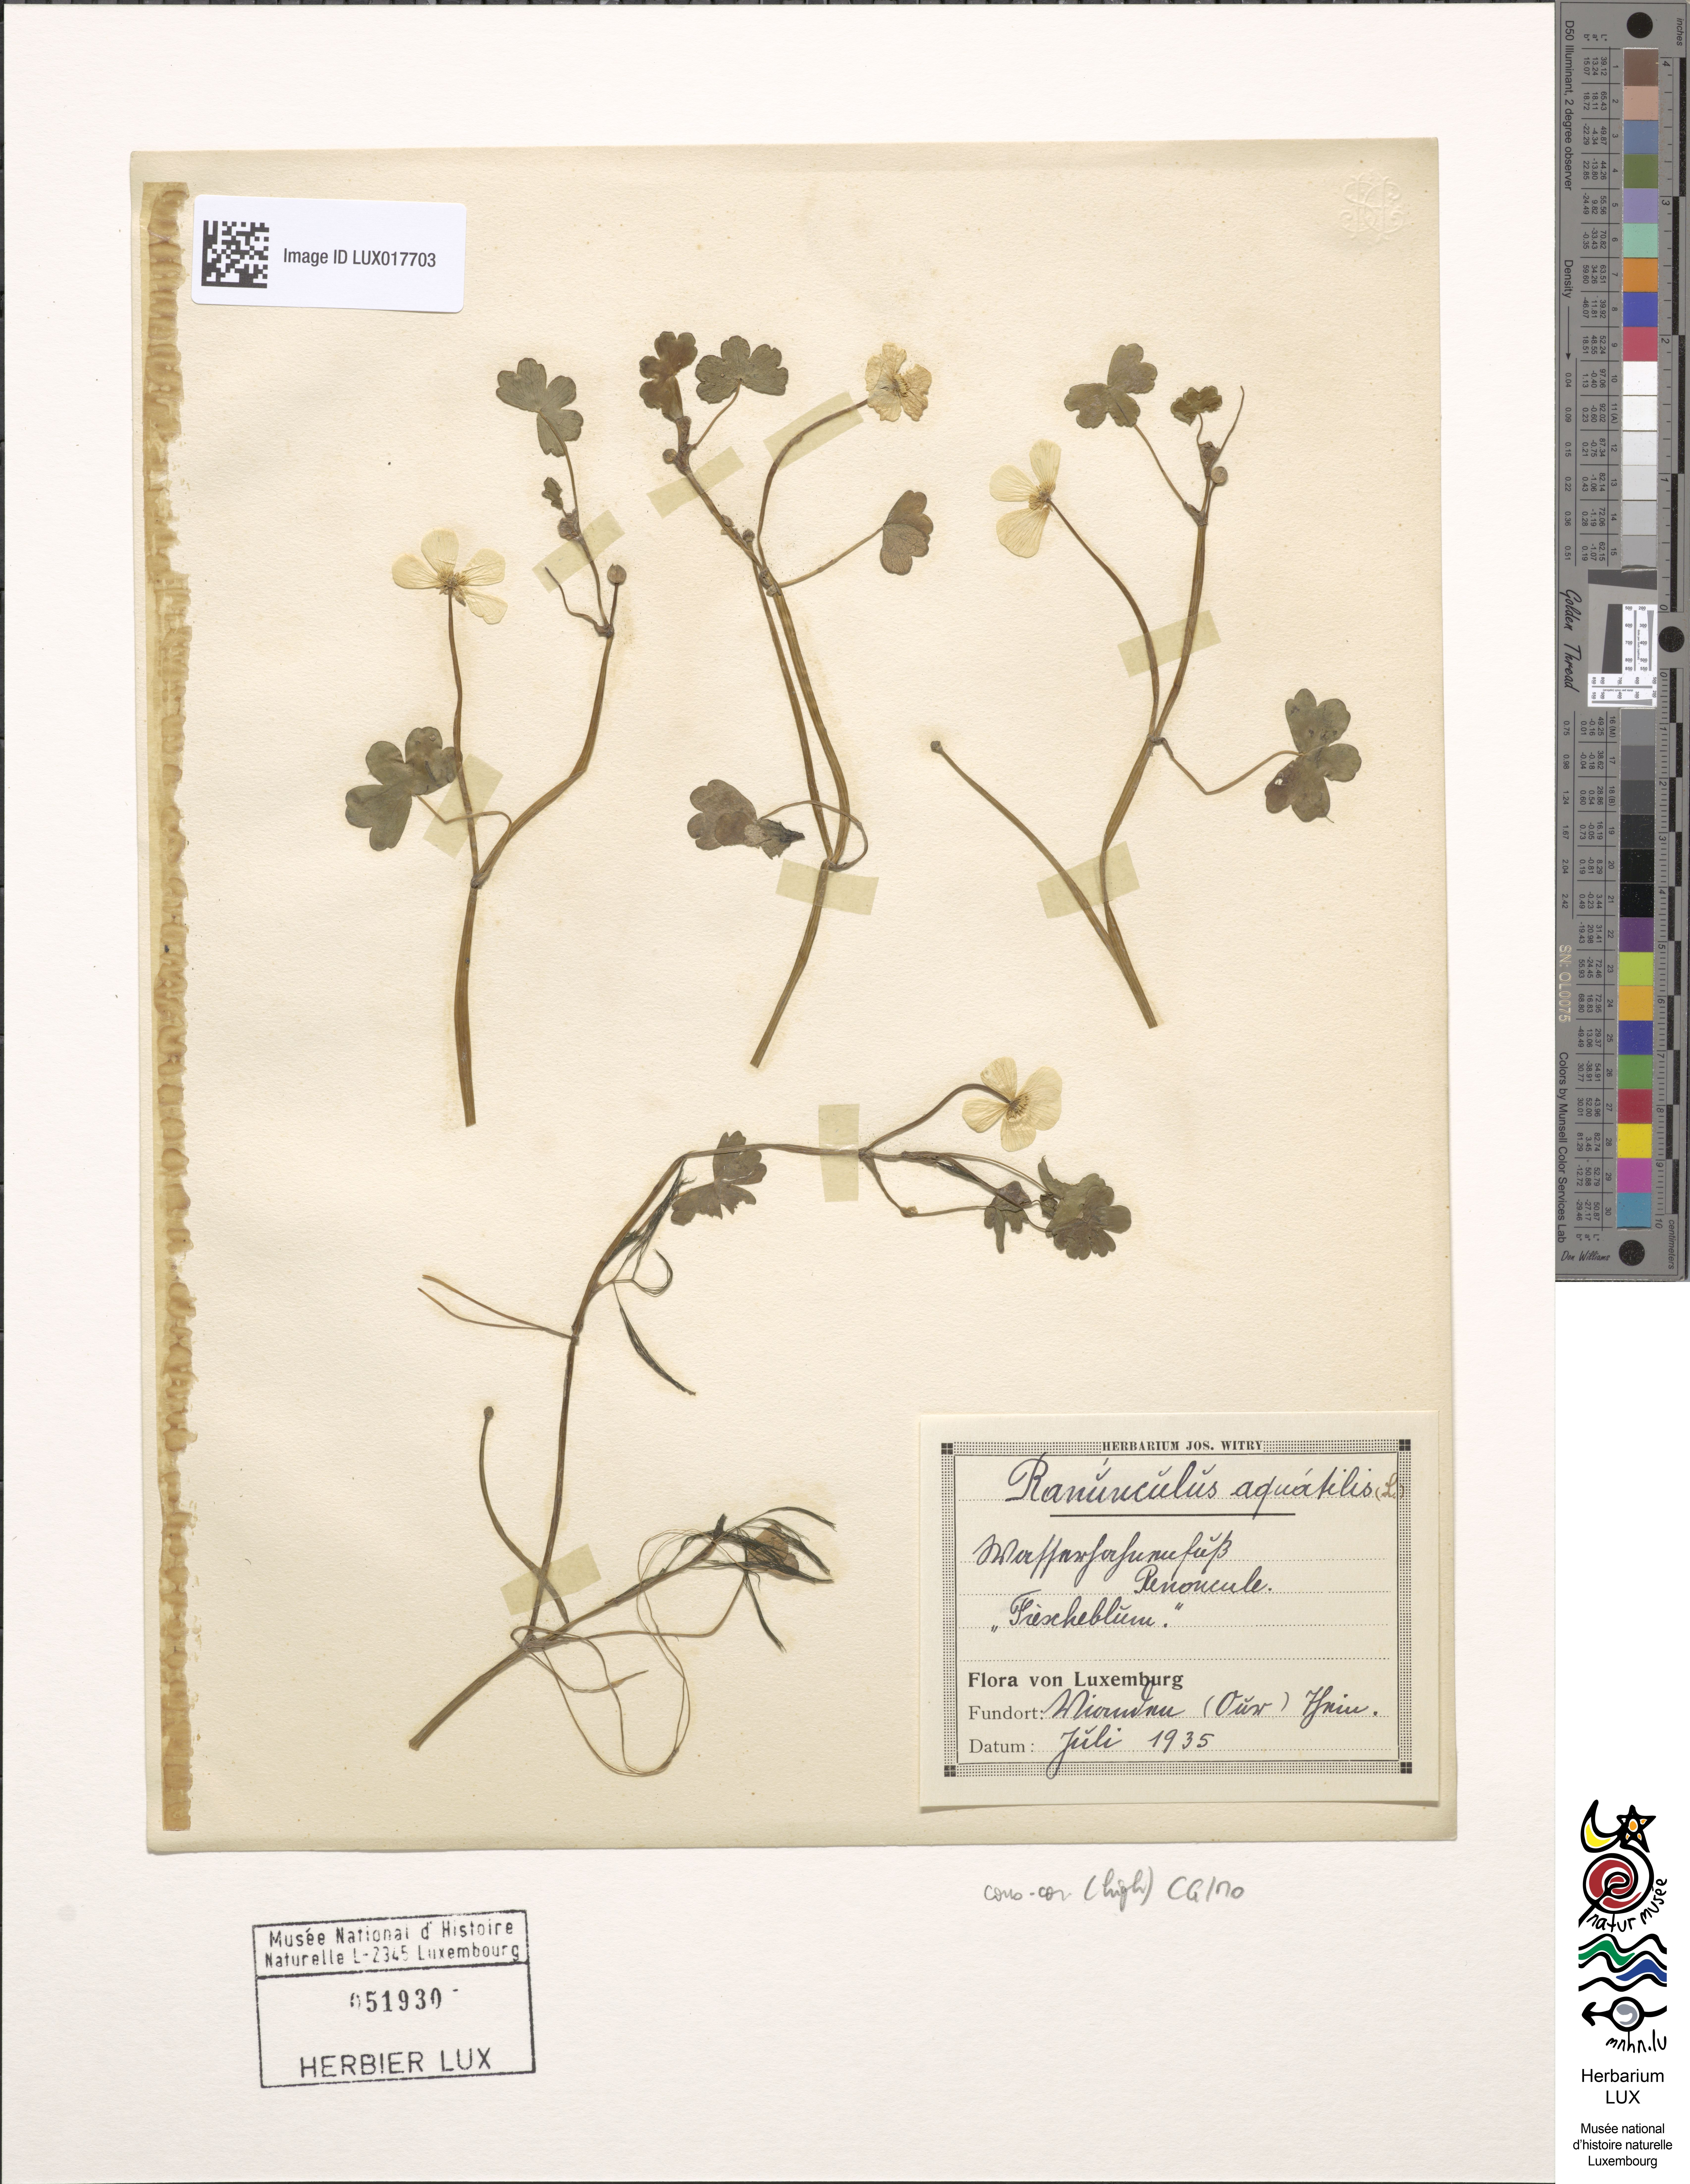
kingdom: Plantae
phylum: Tracheophyta
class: Magnoliopsida
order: Ranunculales
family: Ranunculaceae
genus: Ranunculus
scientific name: Ranunculus aquatilis
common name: Common water-crowfoot
